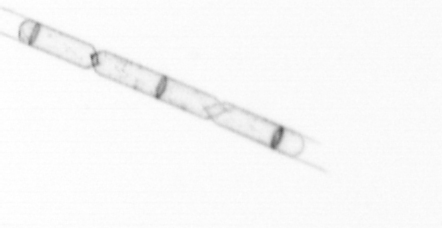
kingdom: Chromista
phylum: Ochrophyta
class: Bacillariophyceae
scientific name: Bacillariophyceae
